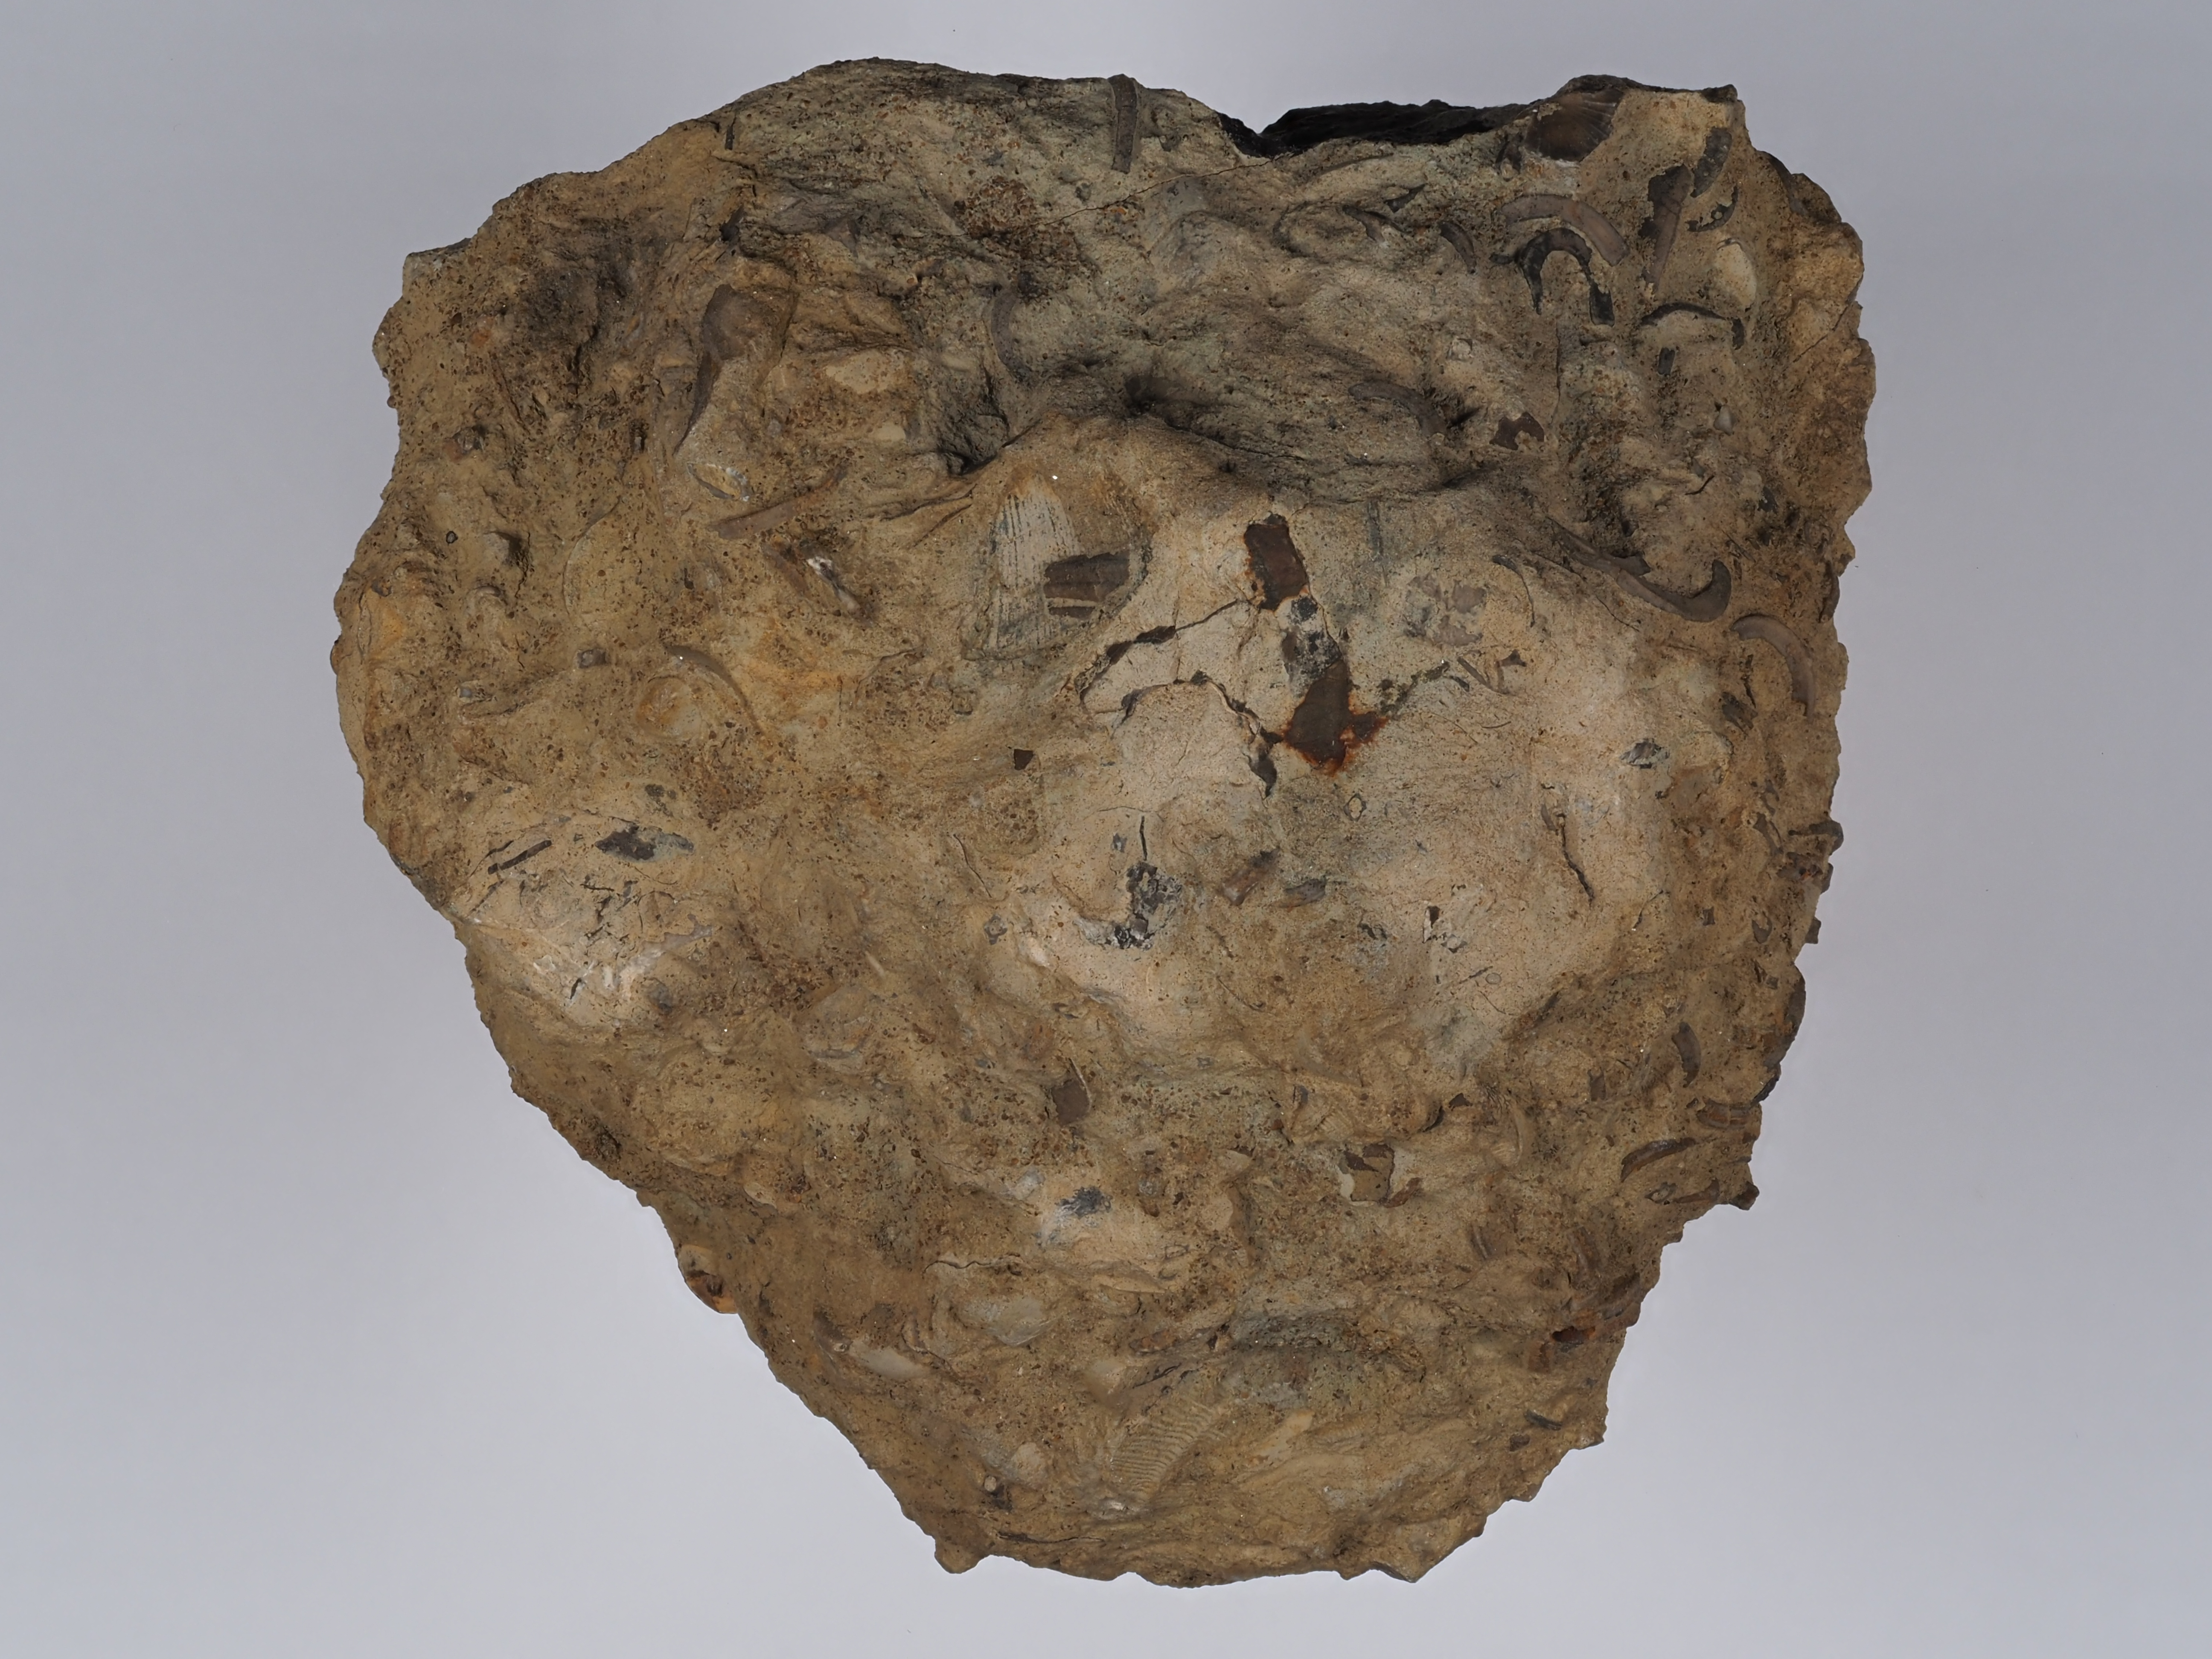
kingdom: Animalia
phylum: Mollusca
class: Gastropoda
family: Turritellidae
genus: Vermicularia
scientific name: Vermicularia lumbricalis
